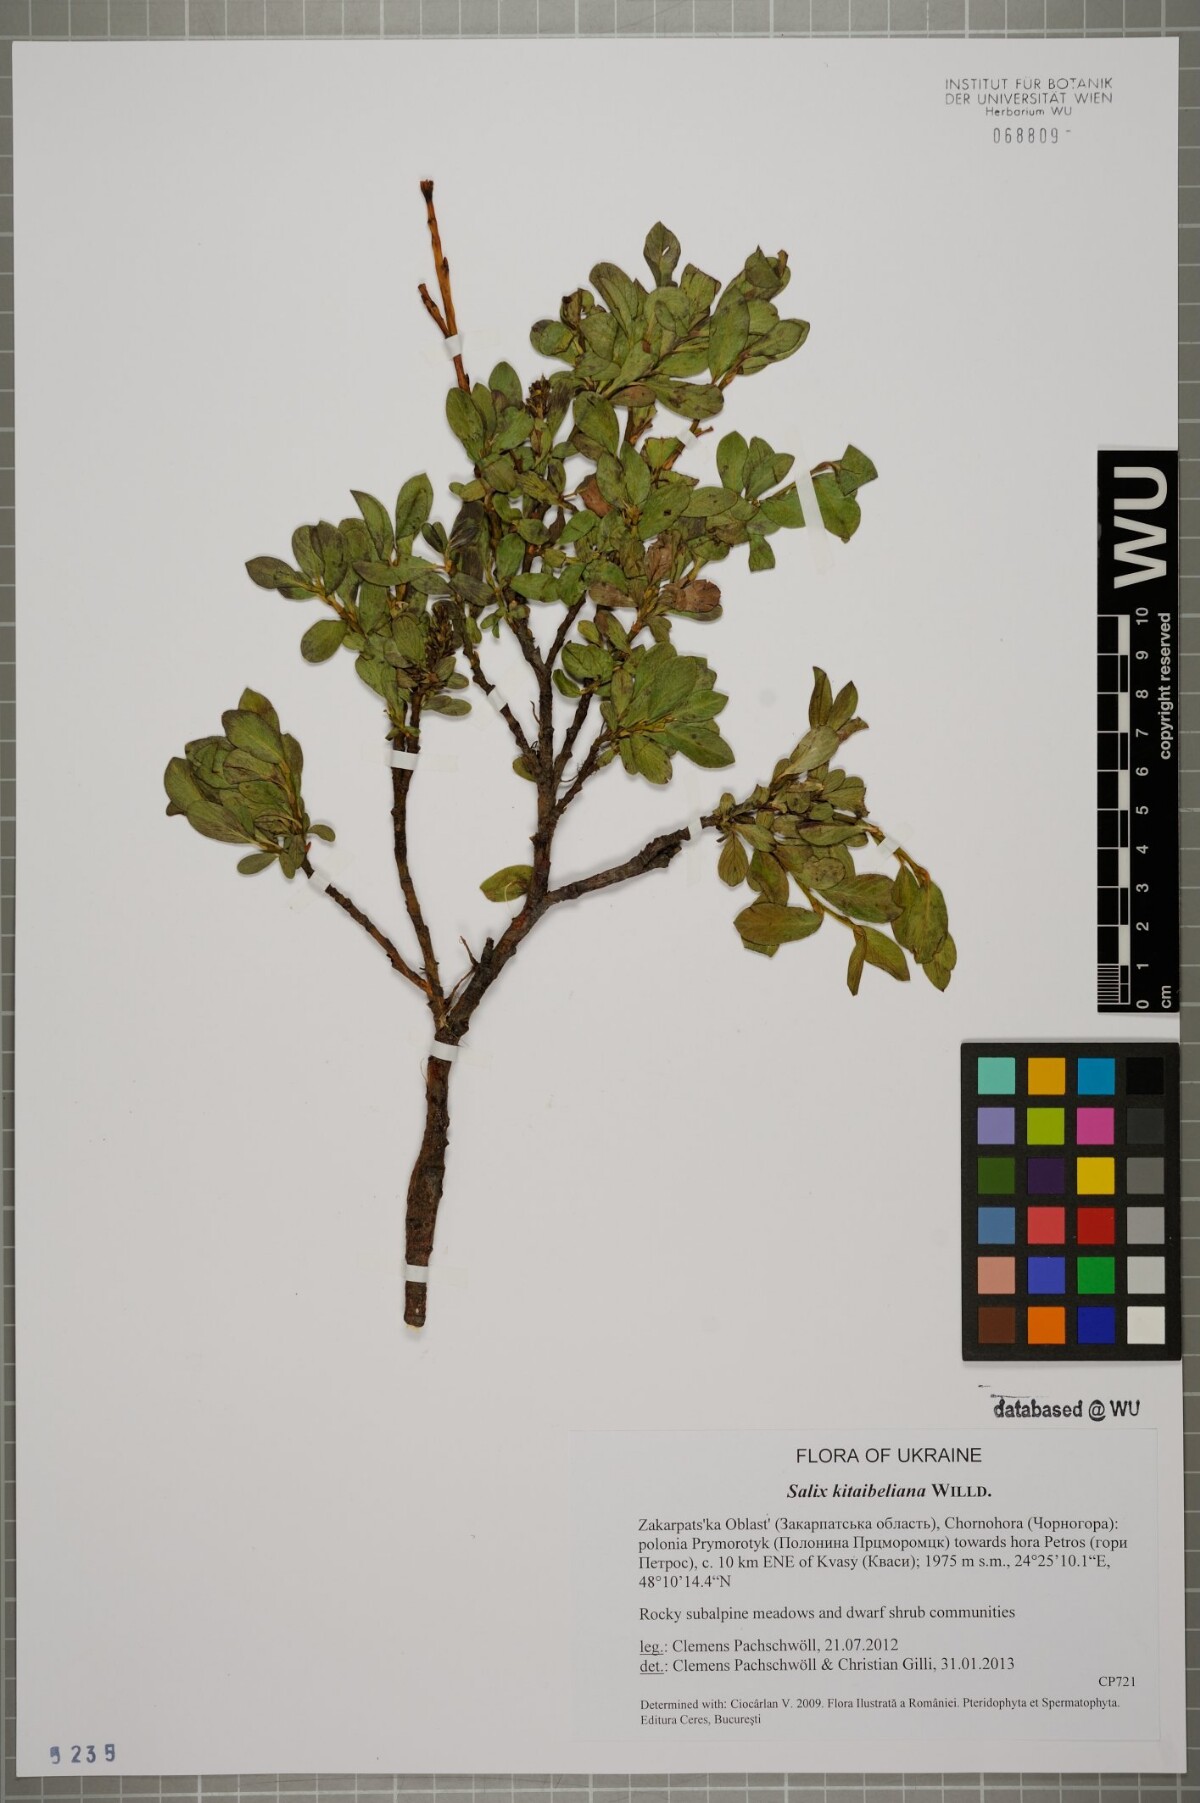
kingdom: Plantae
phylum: Tracheophyta
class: Magnoliopsida
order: Malpighiales
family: Salicaceae
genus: Salix
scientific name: Salix retusa
